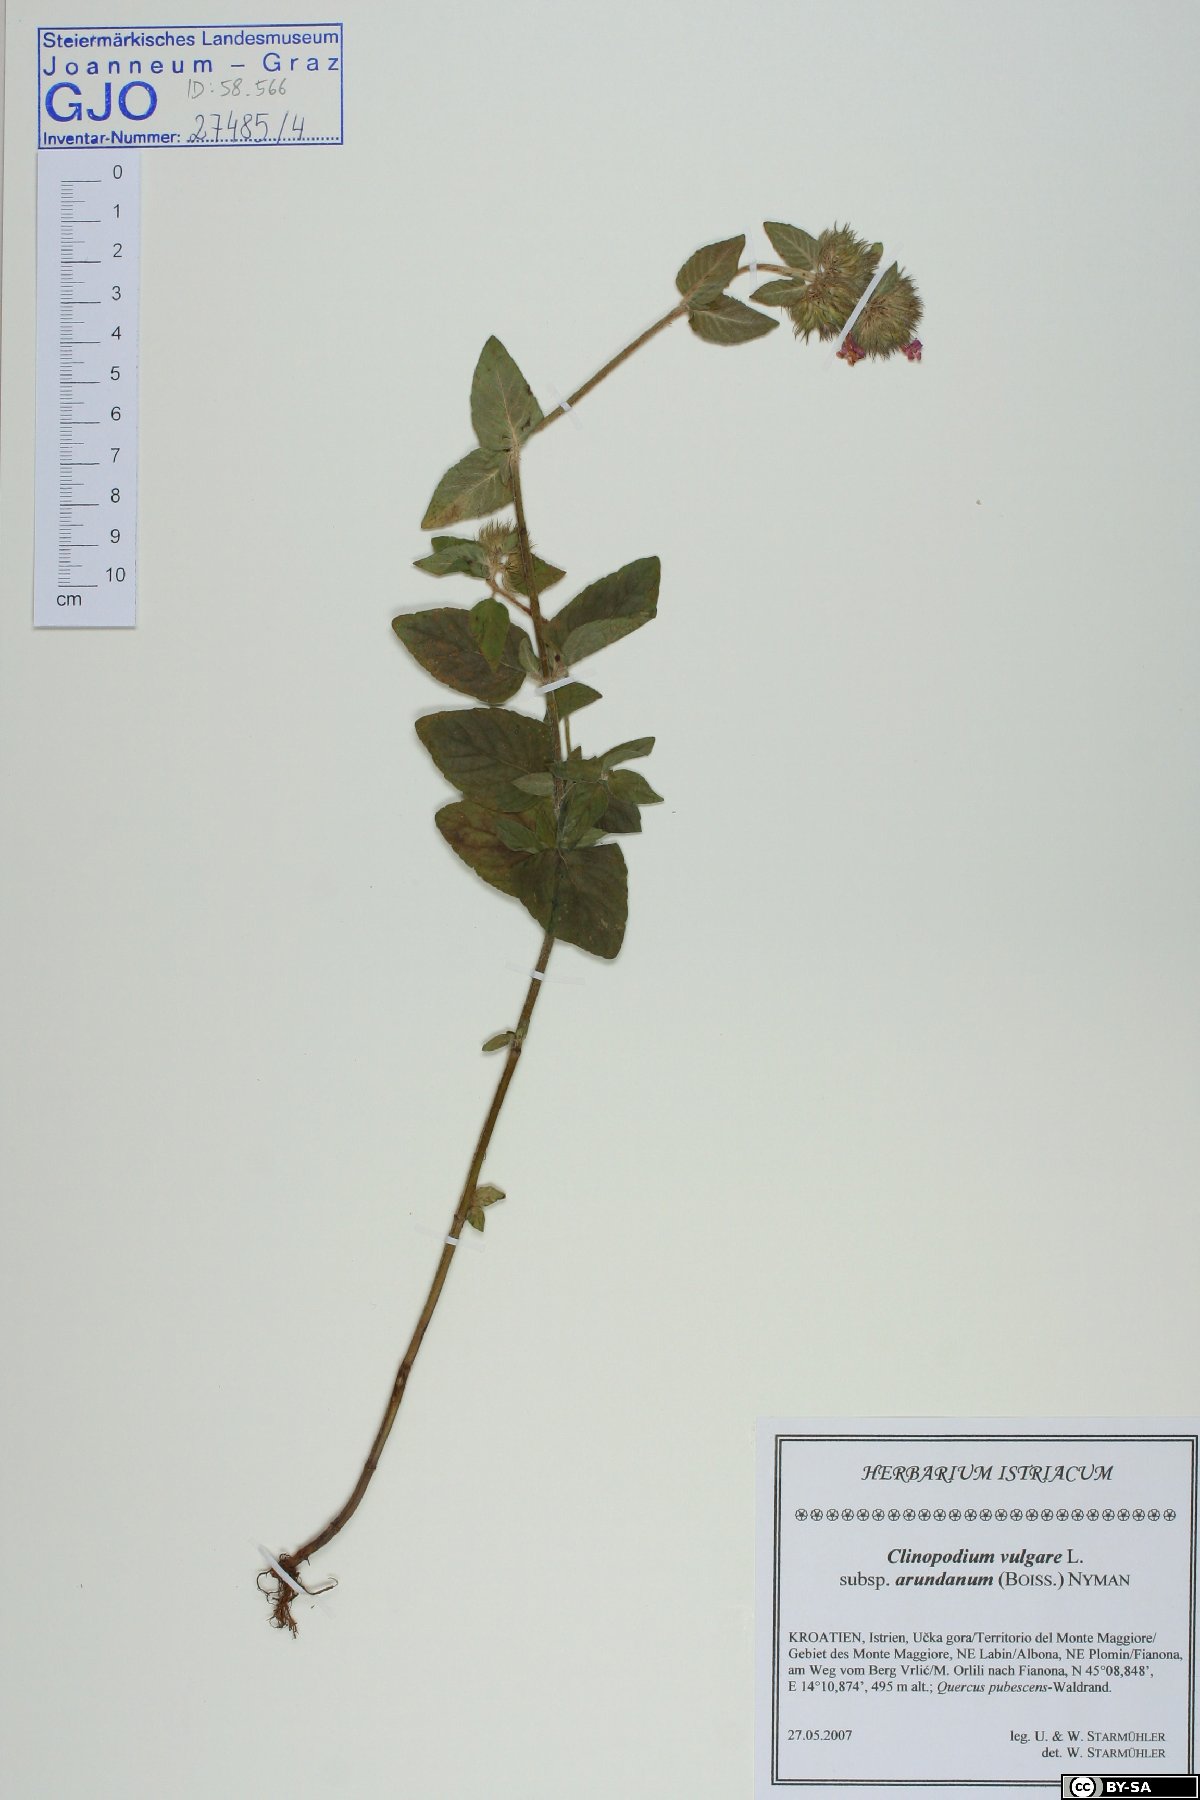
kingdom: Plantae
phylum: Tracheophyta
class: Magnoliopsida
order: Lamiales
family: Lamiaceae
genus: Clinopodium
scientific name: Clinopodium vulgare
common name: Wild basil
